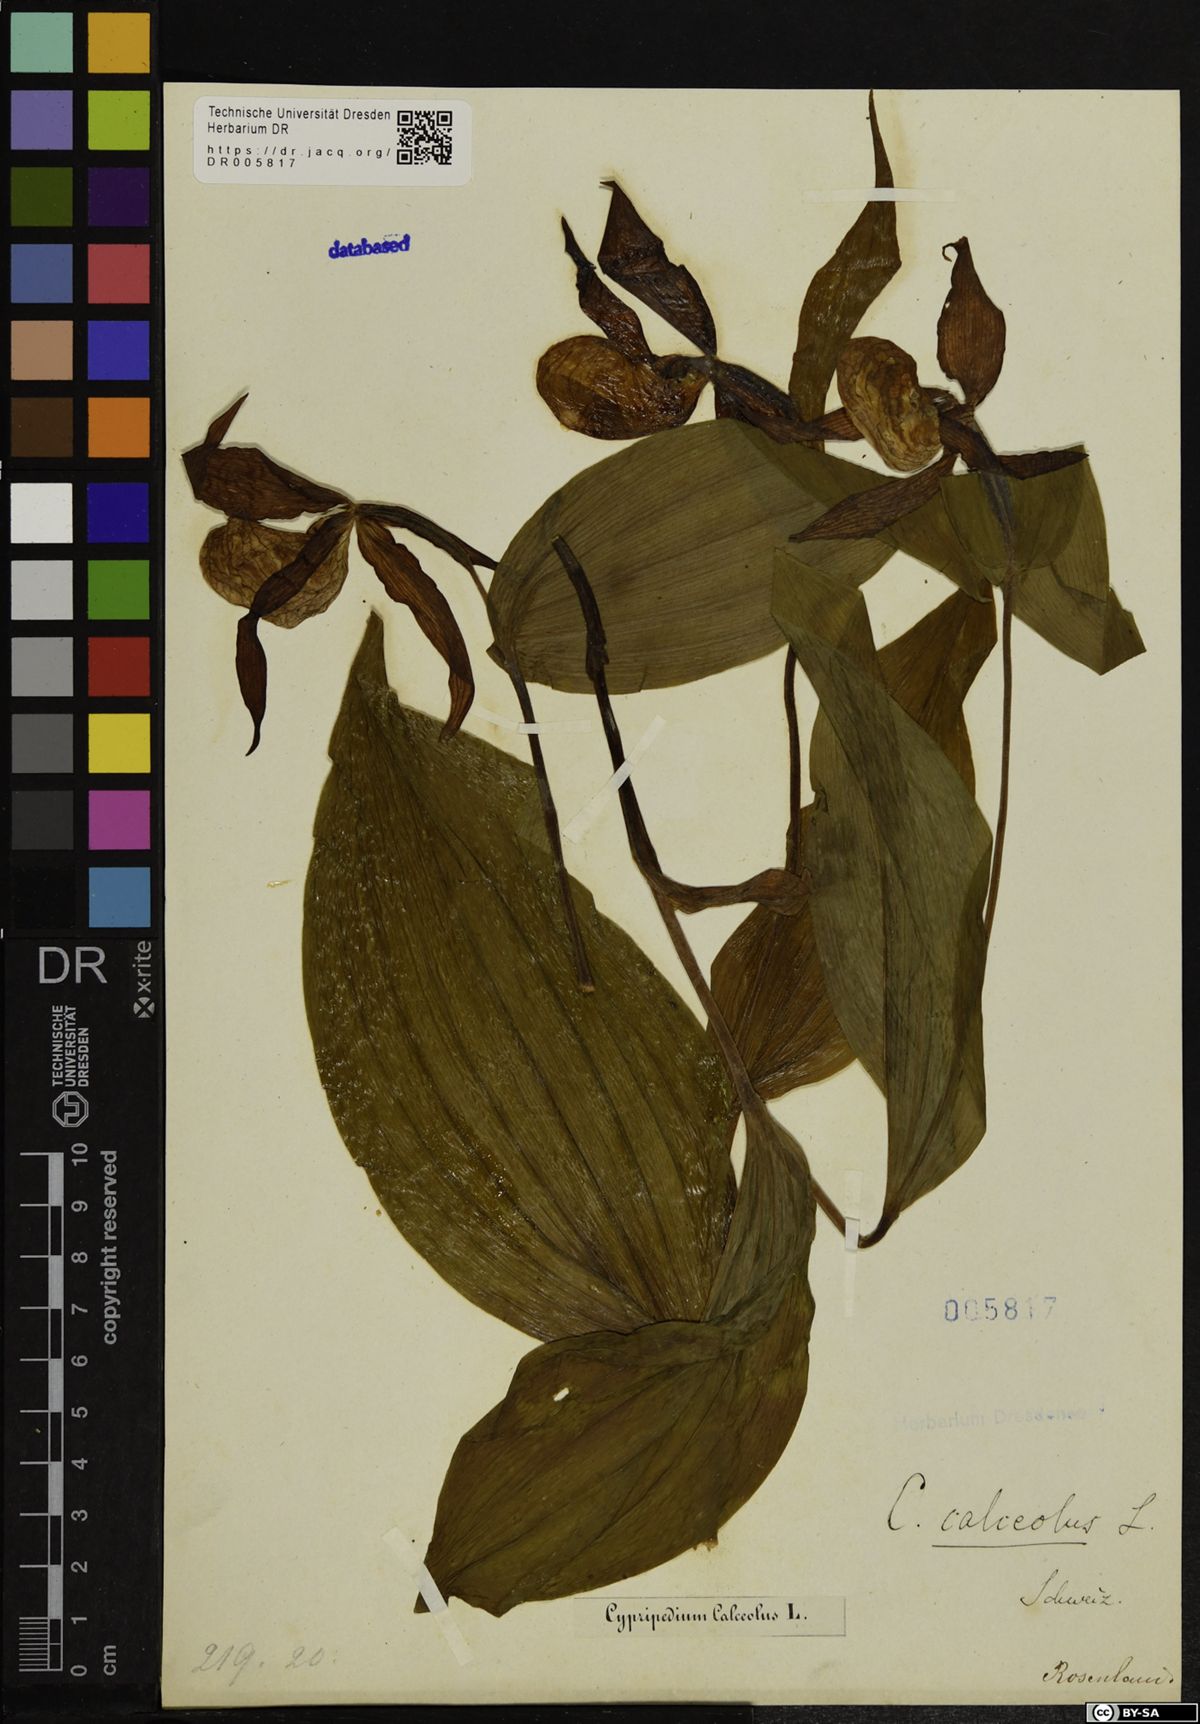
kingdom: Plantae
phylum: Tracheophyta
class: Liliopsida
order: Asparagales
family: Orchidaceae
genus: Cypripedium
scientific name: Cypripedium calceolus
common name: Lady's-slipper
